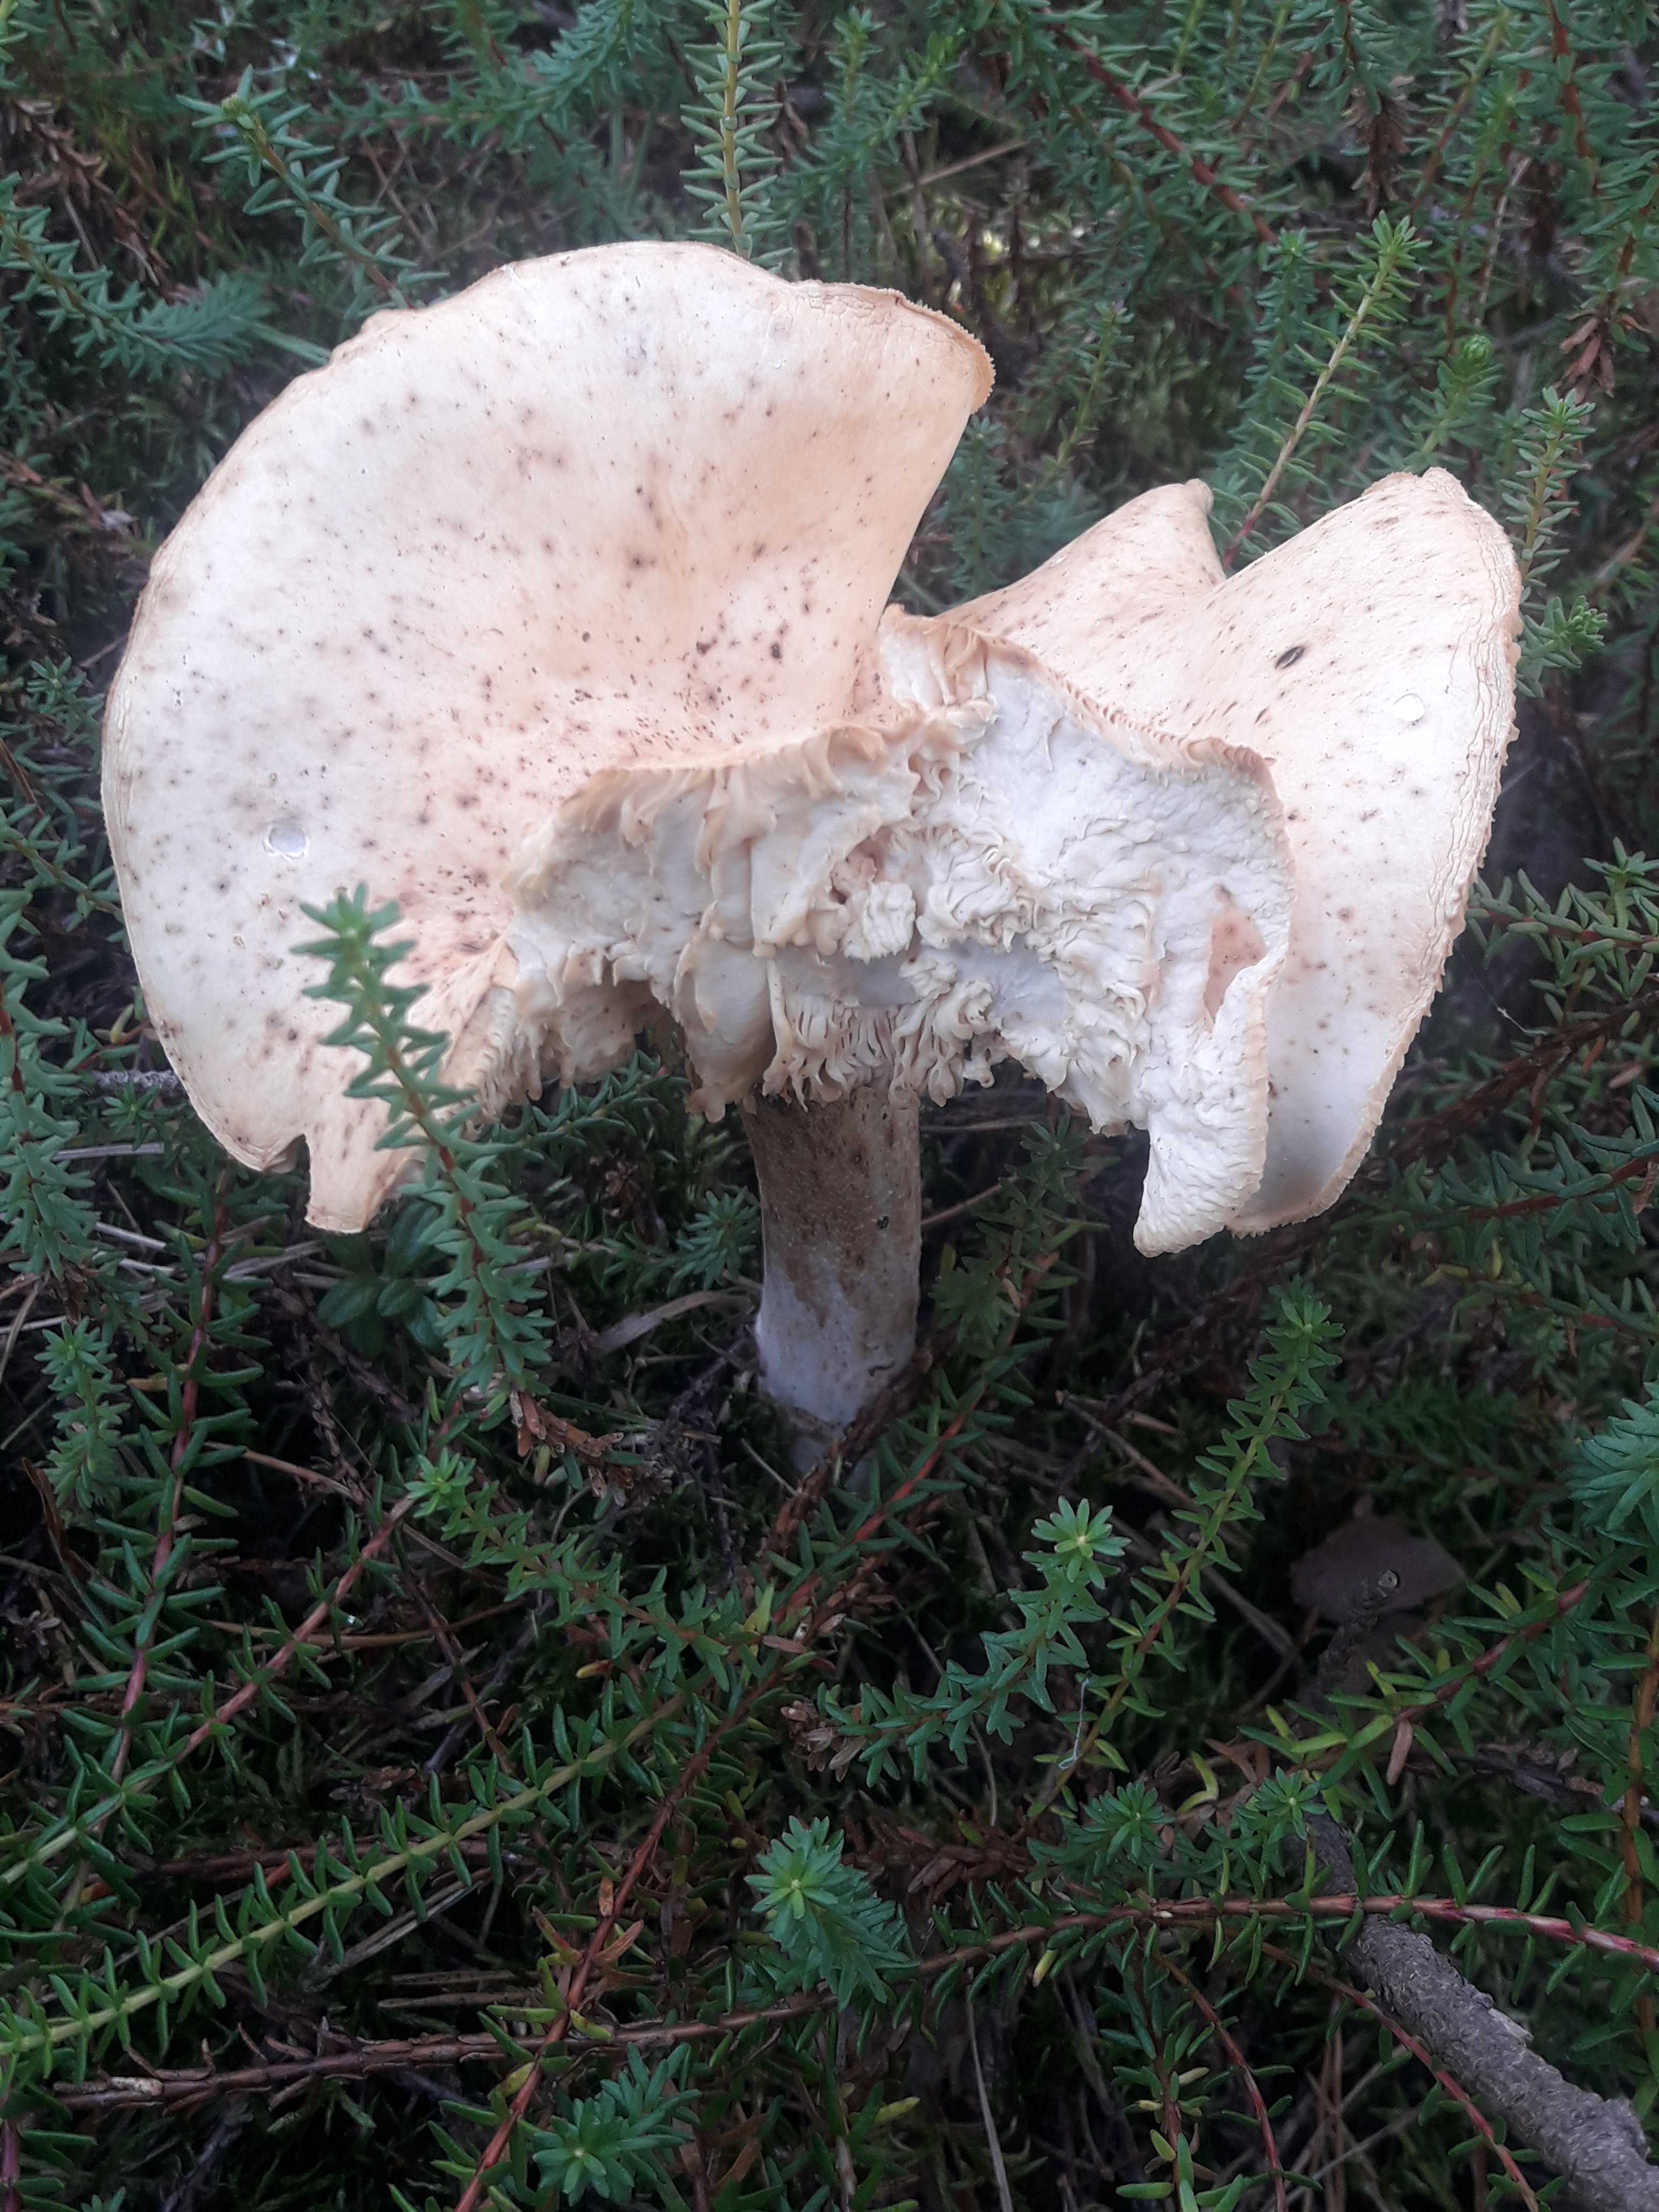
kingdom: Fungi
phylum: Basidiomycota
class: Agaricomycetes
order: Agaricales
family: Omphalotaceae
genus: Rhodocollybia
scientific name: Rhodocollybia maculata
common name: plettet fladhat
